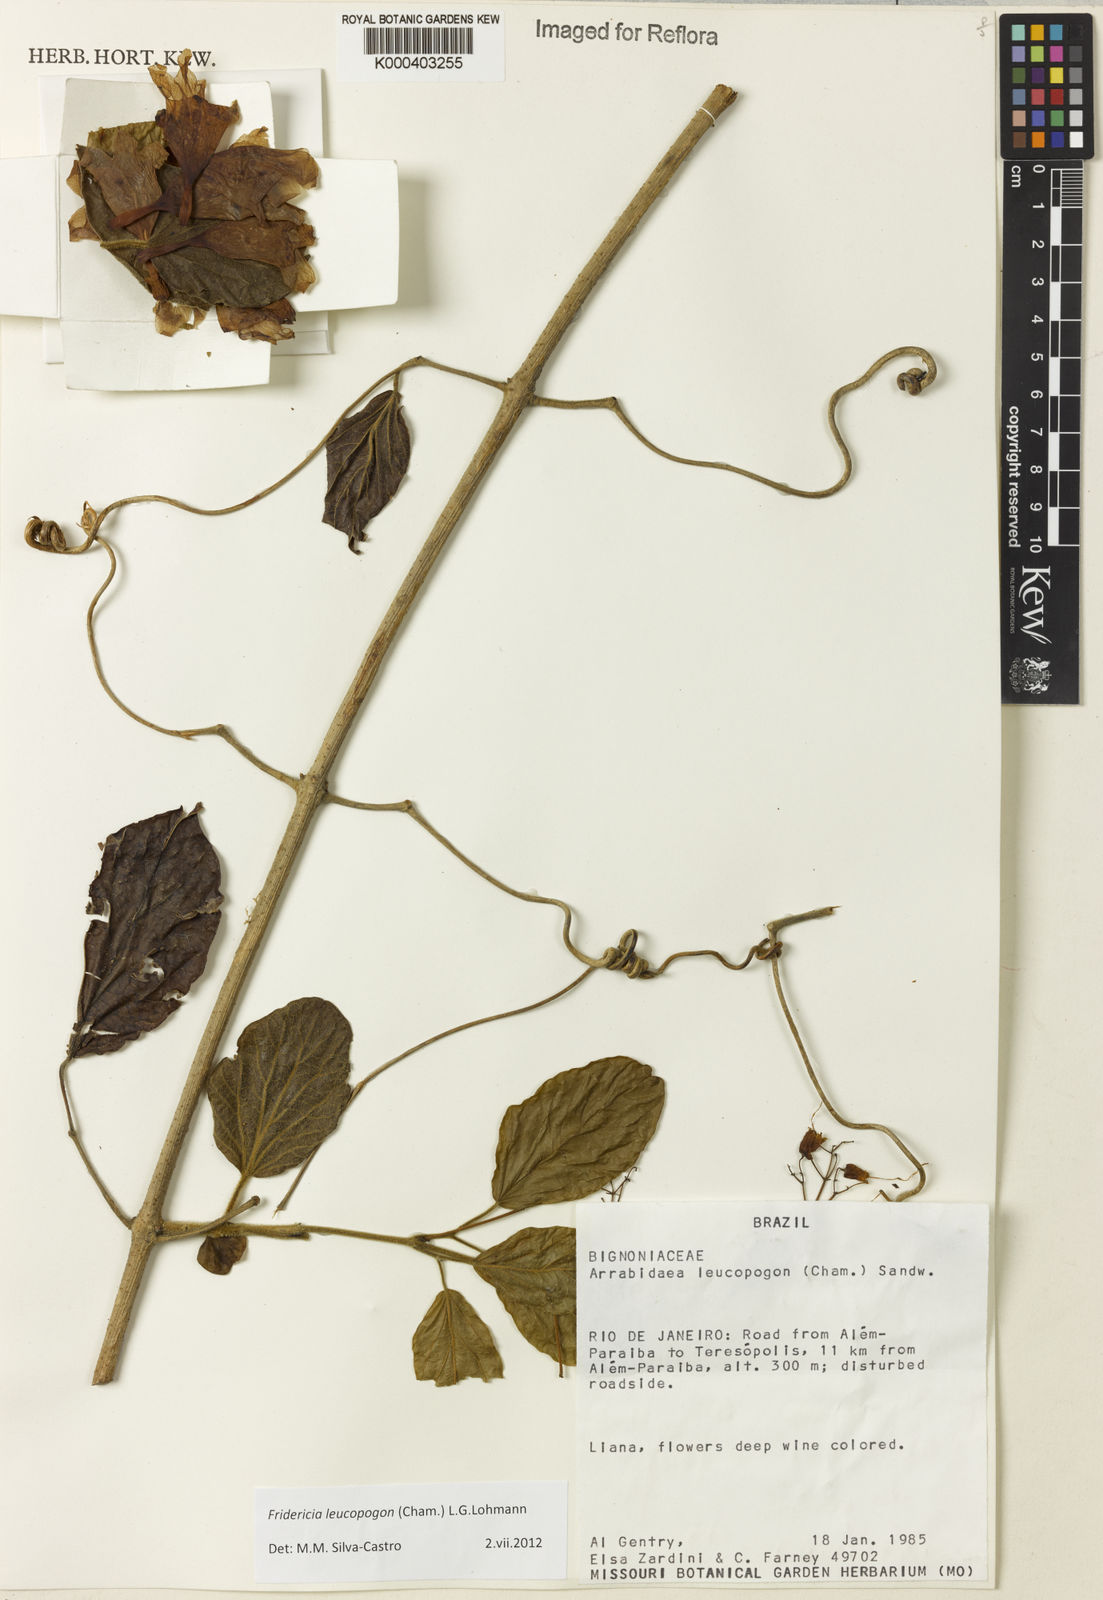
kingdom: Plantae
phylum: Tracheophyta
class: Magnoliopsida
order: Lamiales
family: Bignoniaceae
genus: Fridericia
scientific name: Fridericia leucopogon
